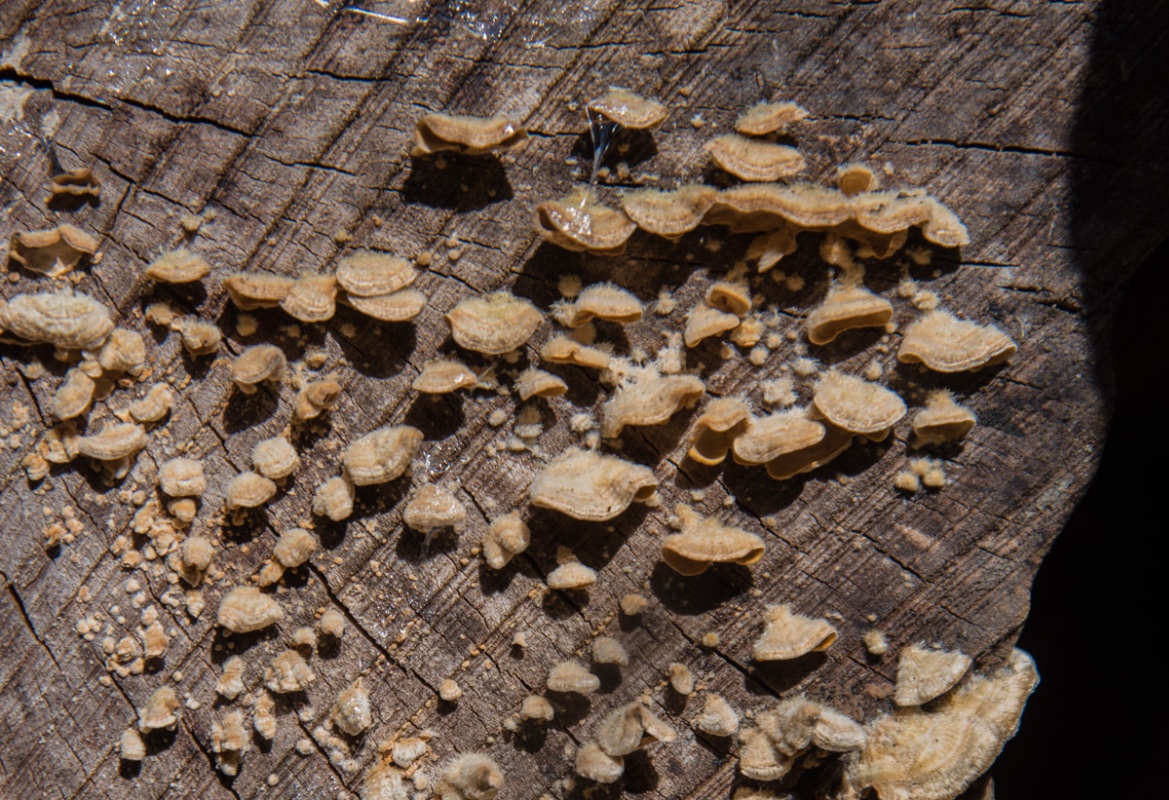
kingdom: Fungi
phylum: Basidiomycota
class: Agaricomycetes
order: Russulales
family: Stereaceae
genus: Stereum
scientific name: Stereum hirsutum
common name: håret lædersvamp
